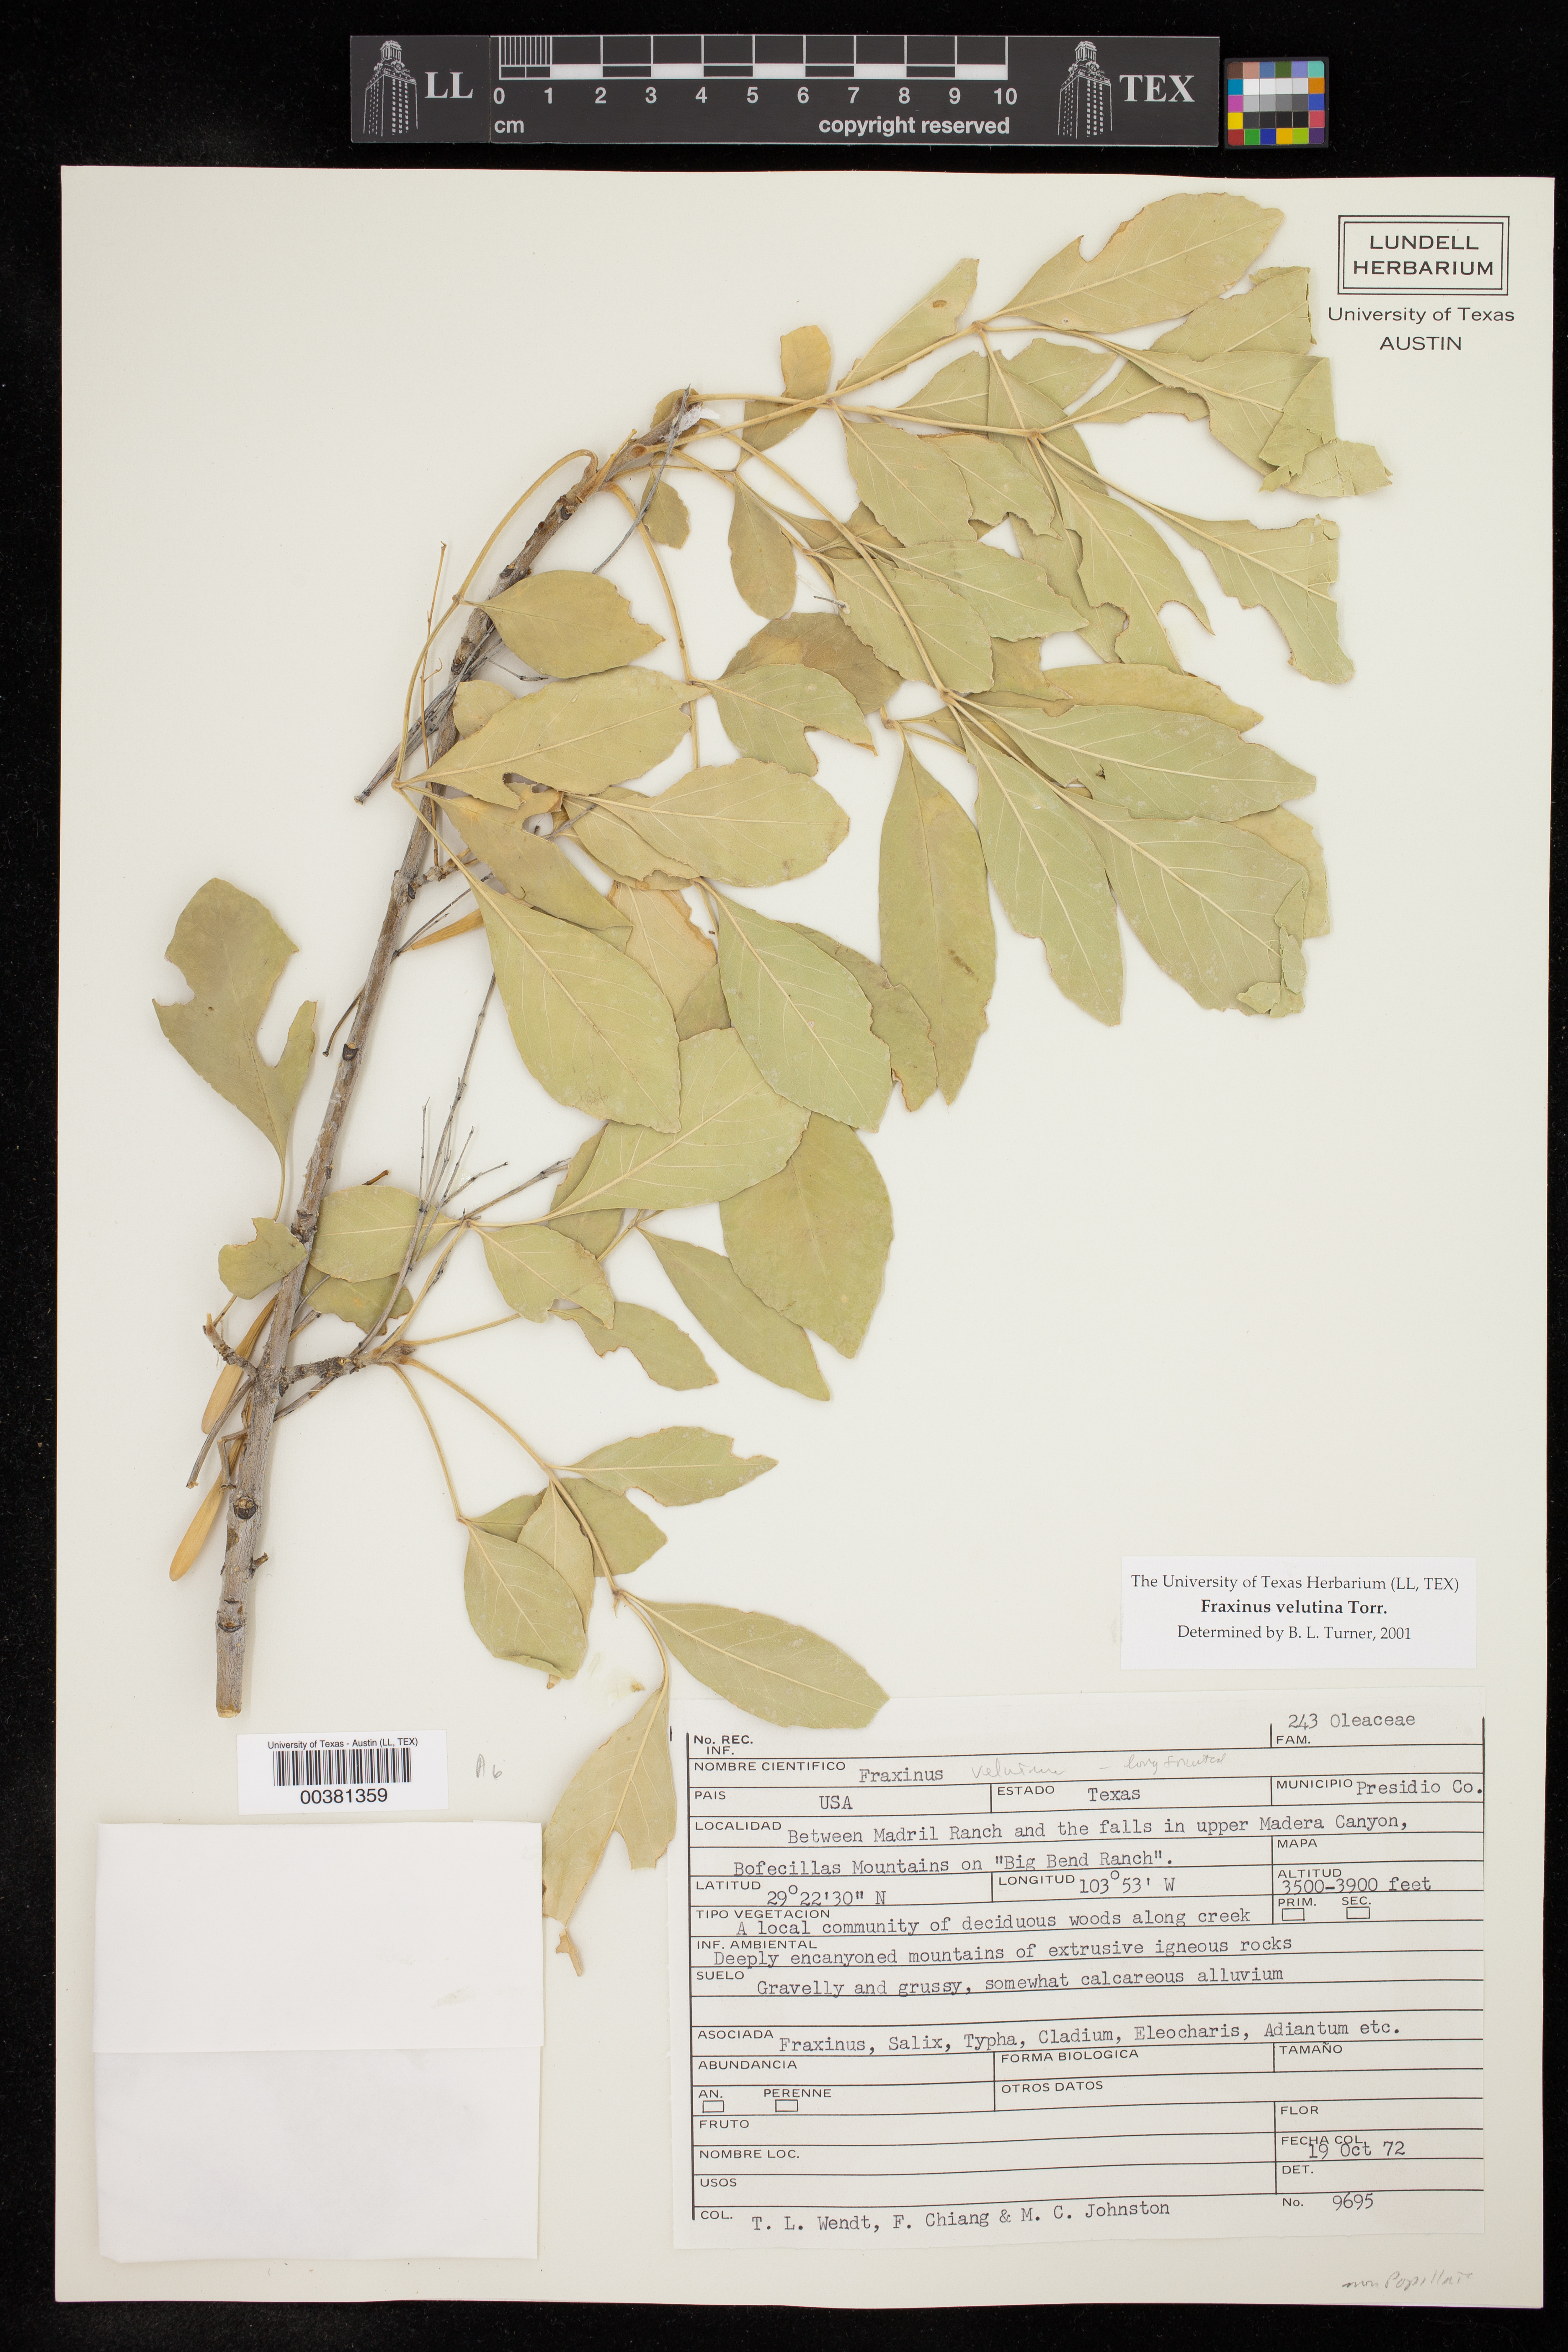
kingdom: Plantae
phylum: Tracheophyta
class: Magnoliopsida
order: Lamiales
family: Oleaceae
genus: Fraxinus
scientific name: Fraxinus velutina
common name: Arizon ash
